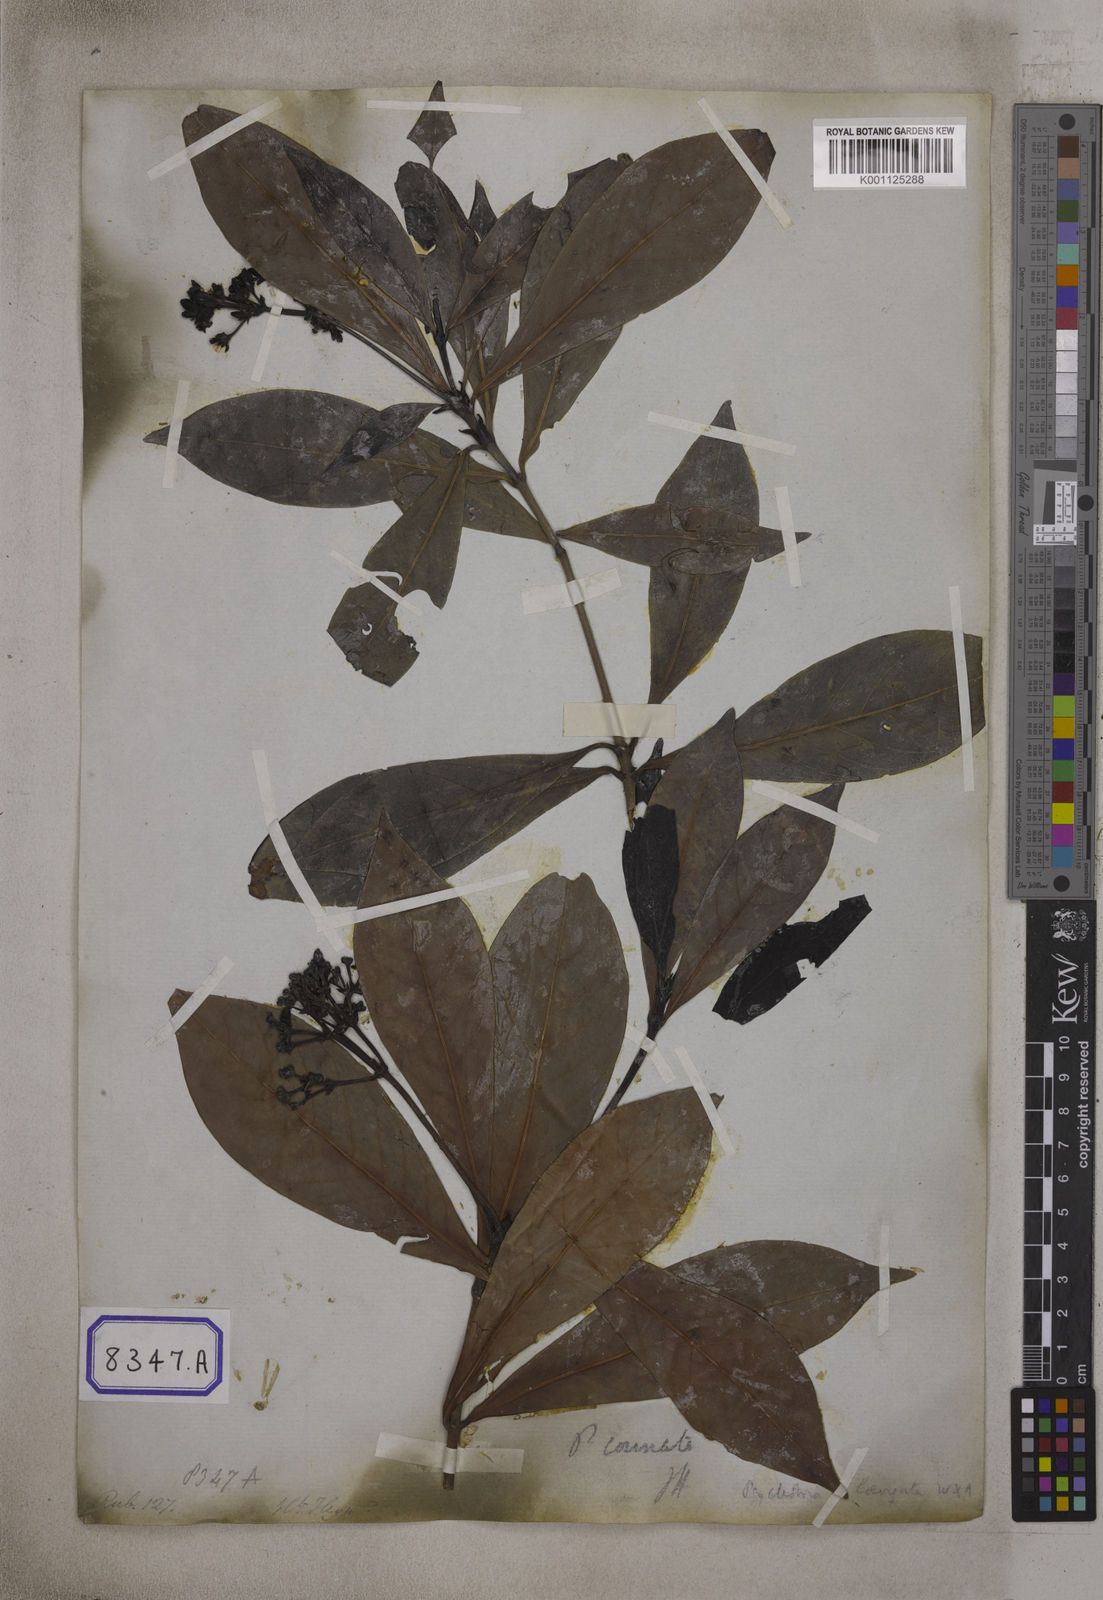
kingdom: Plantae
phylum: Tracheophyta
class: Magnoliopsida
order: Gentianales
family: Rubiaceae
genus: Psychotria
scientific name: Psychotria connata
